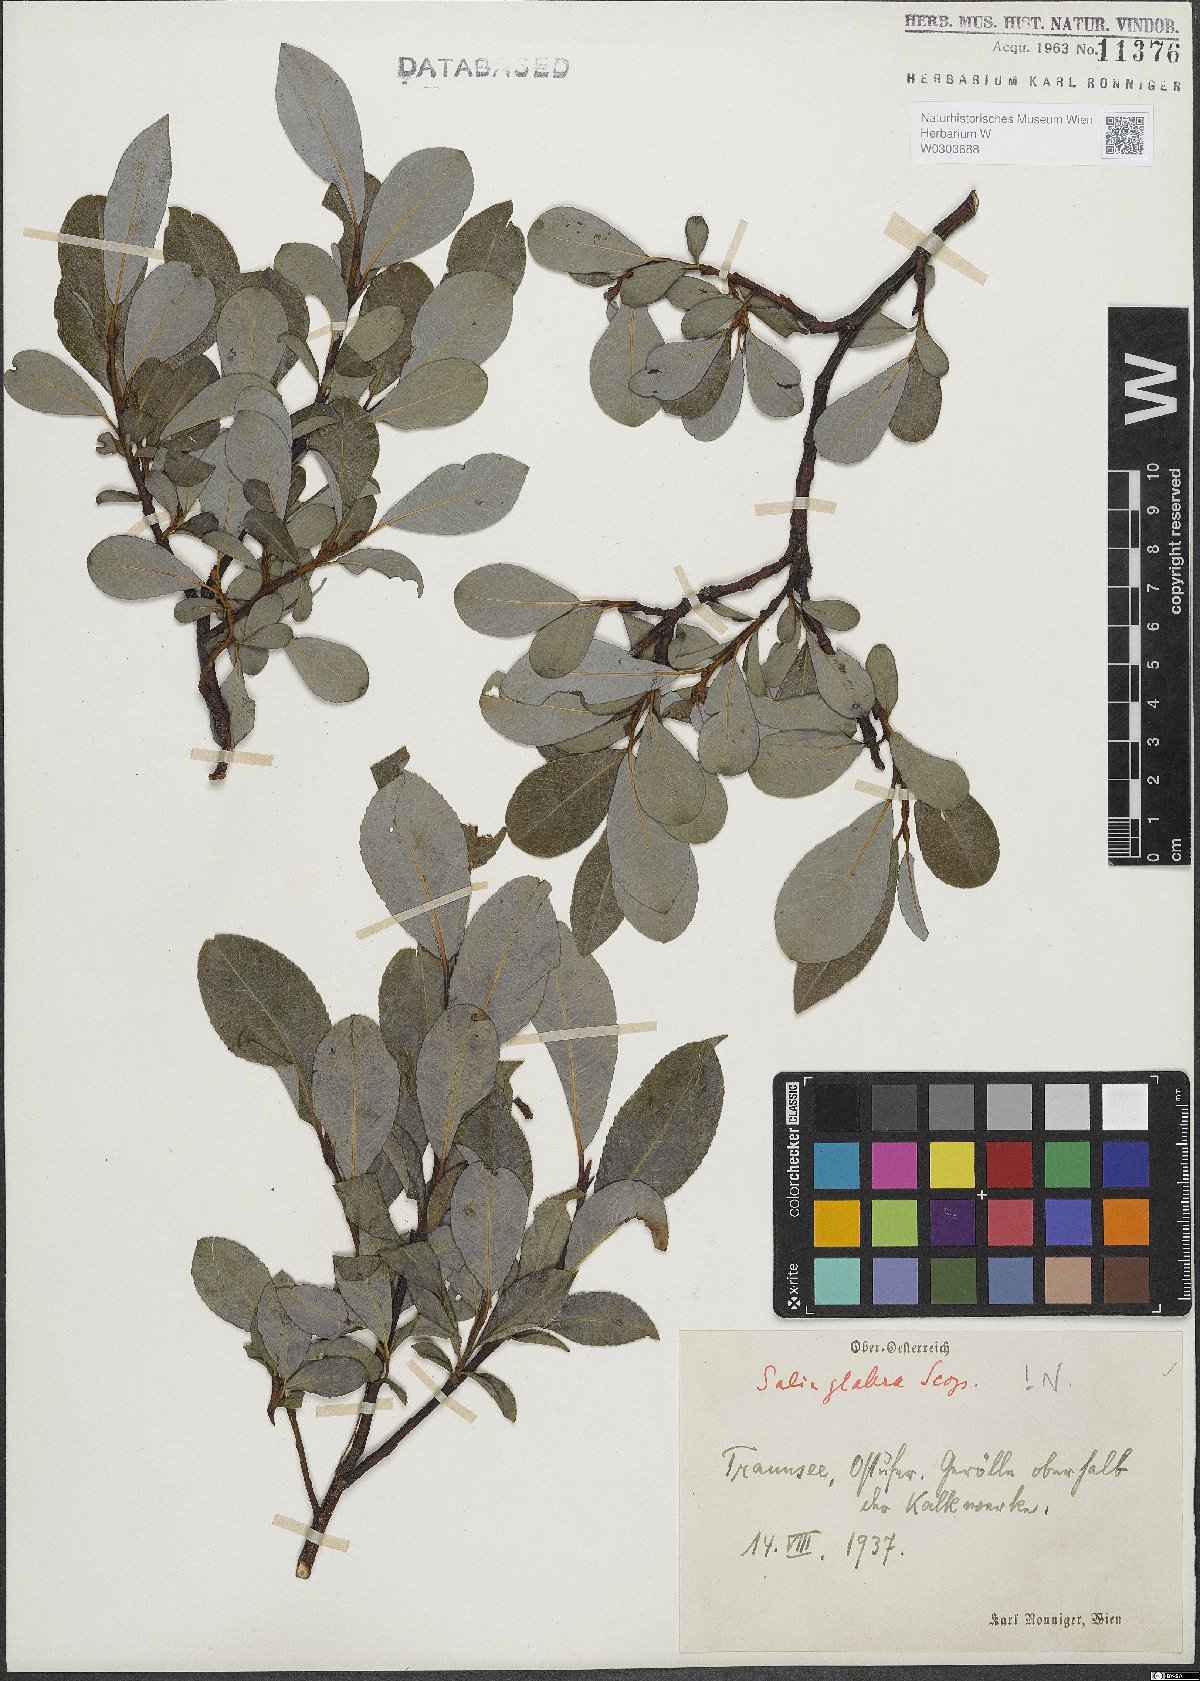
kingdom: Plantae
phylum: Tracheophyta
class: Magnoliopsida
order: Malpighiales
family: Salicaceae
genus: Salix
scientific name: Salix glabra
